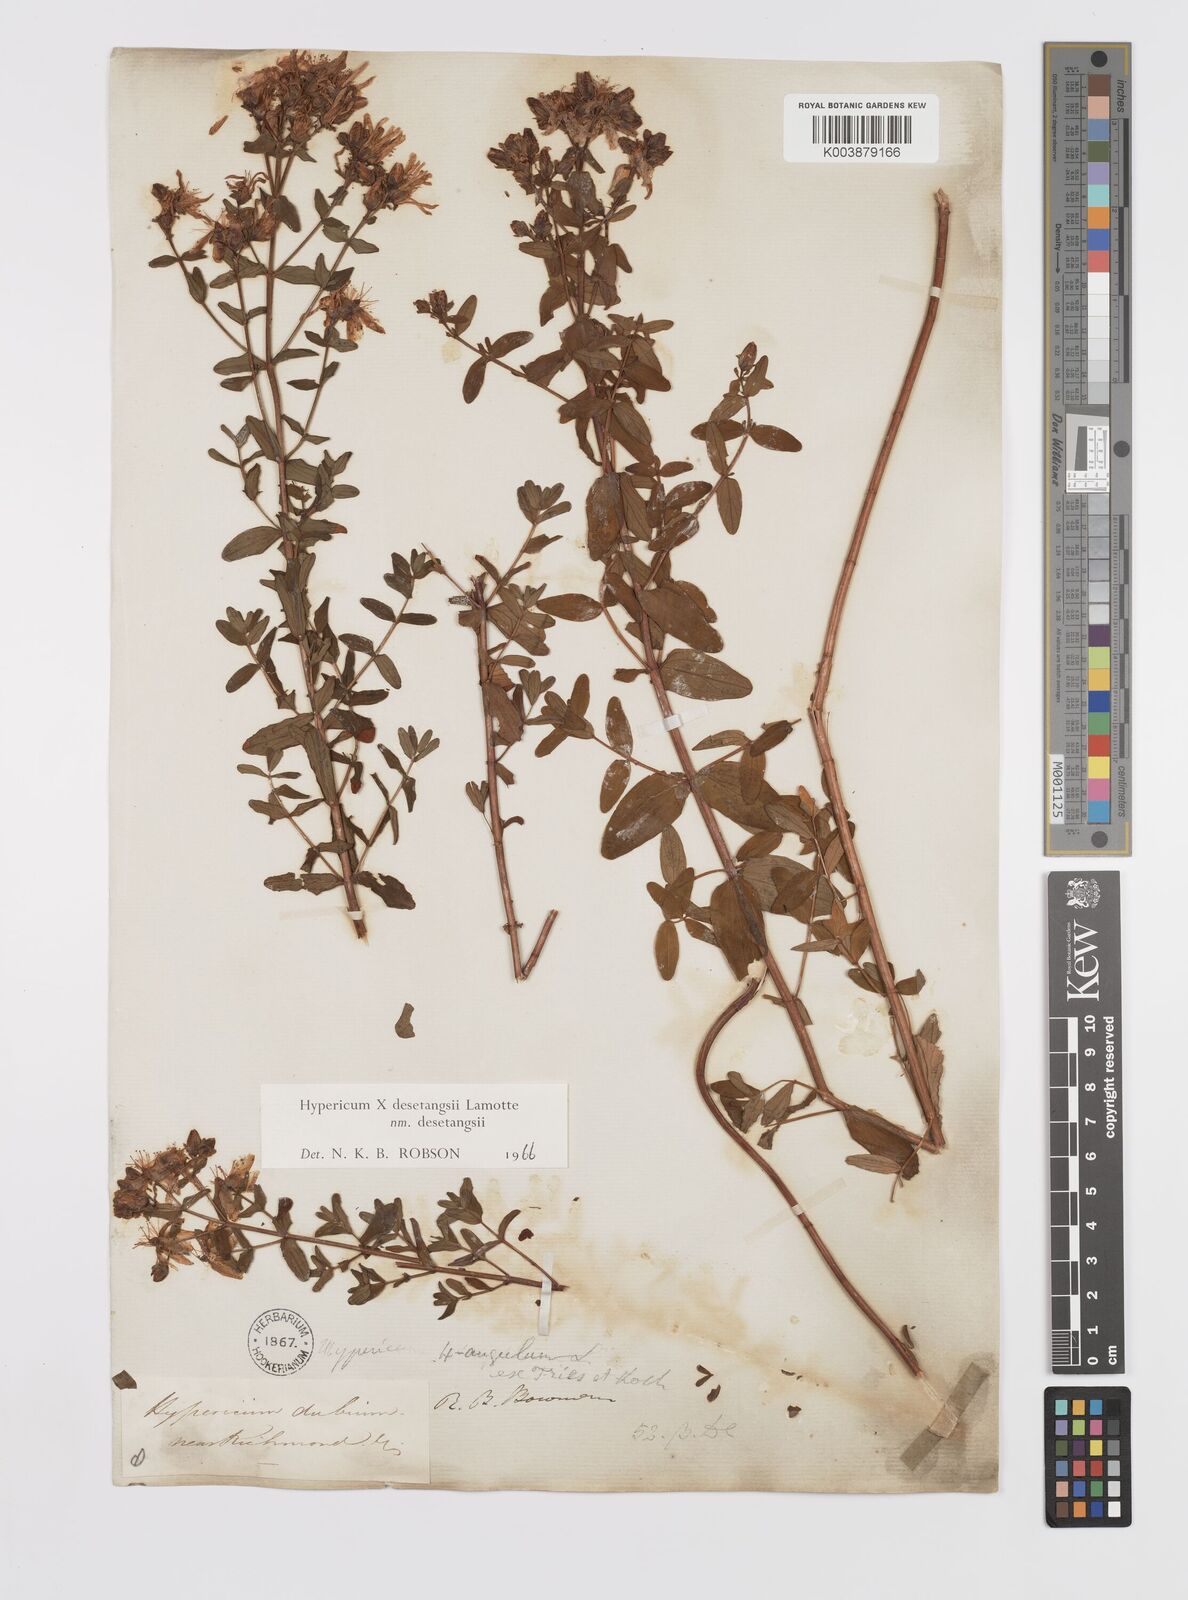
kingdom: Plantae
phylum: Tracheophyta
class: Magnoliopsida
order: Malpighiales
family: Hypericaceae
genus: Hypericum
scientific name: Hypericum undulatum
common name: Wavy st. john's-wort
